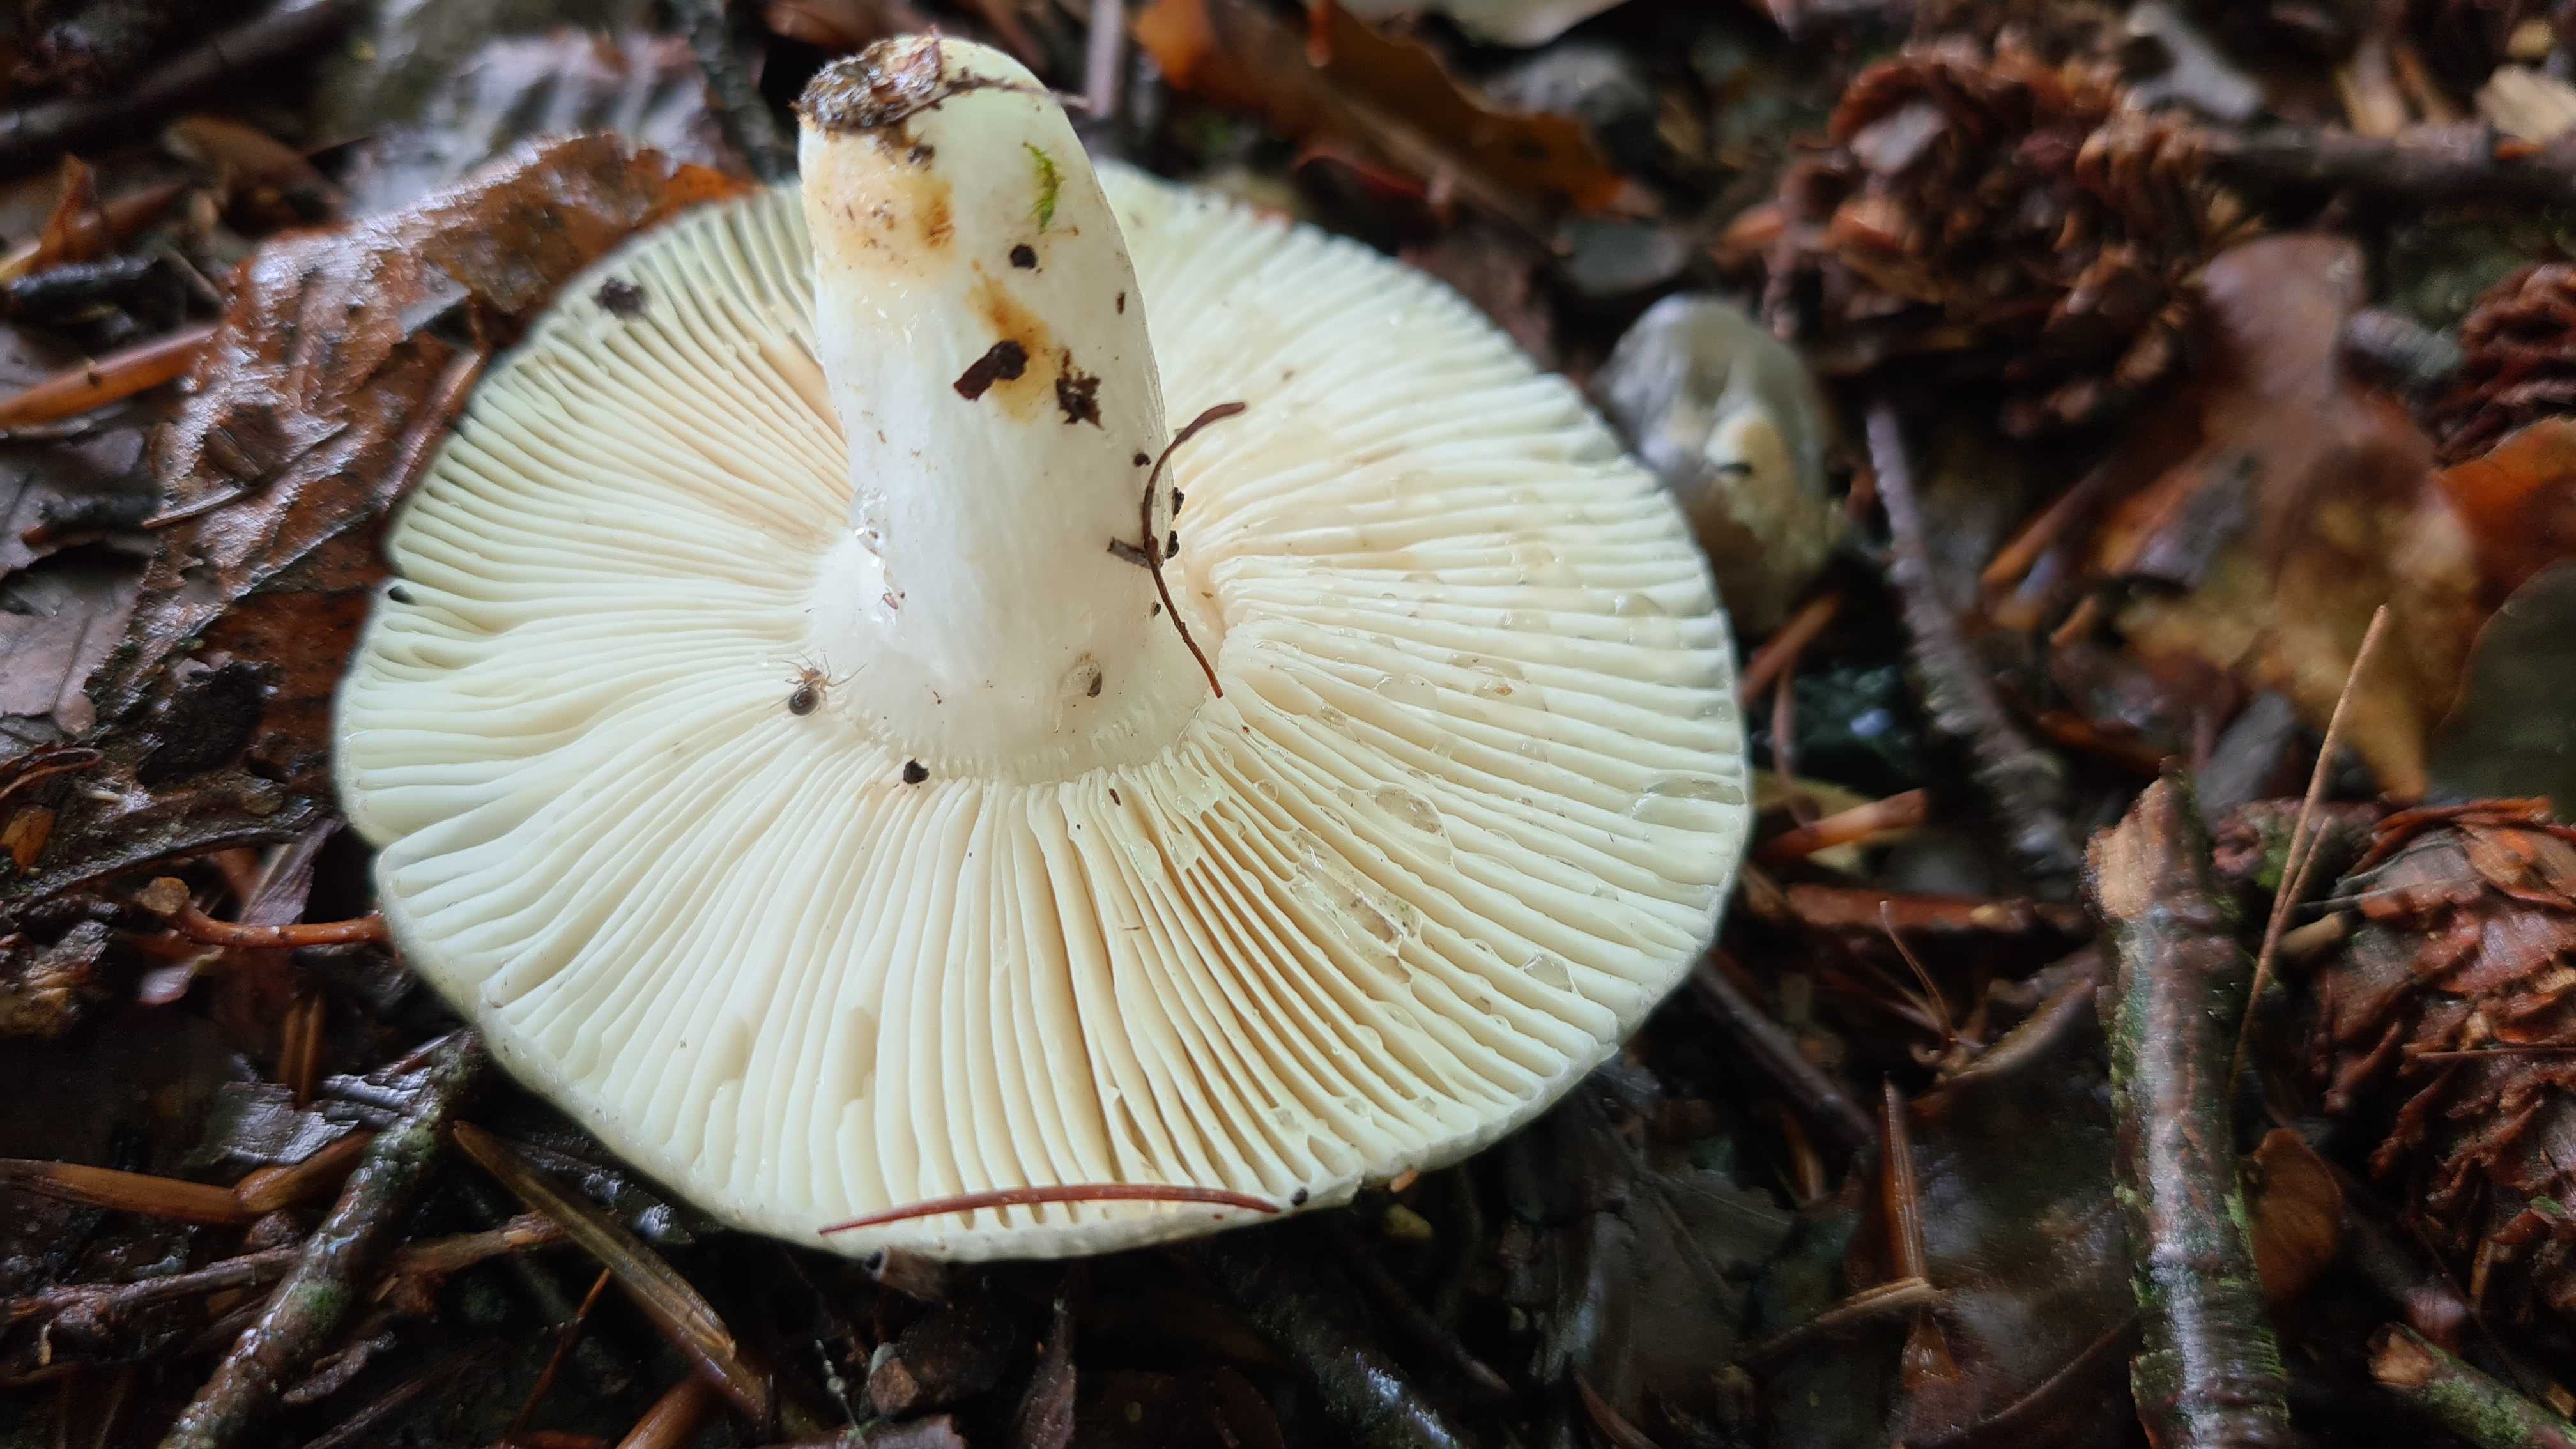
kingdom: Fungi
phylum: Basidiomycota
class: Agaricomycetes
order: Russulales
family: Russulaceae
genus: Russula
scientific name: Russula parazurea
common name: blågrå skørhat
